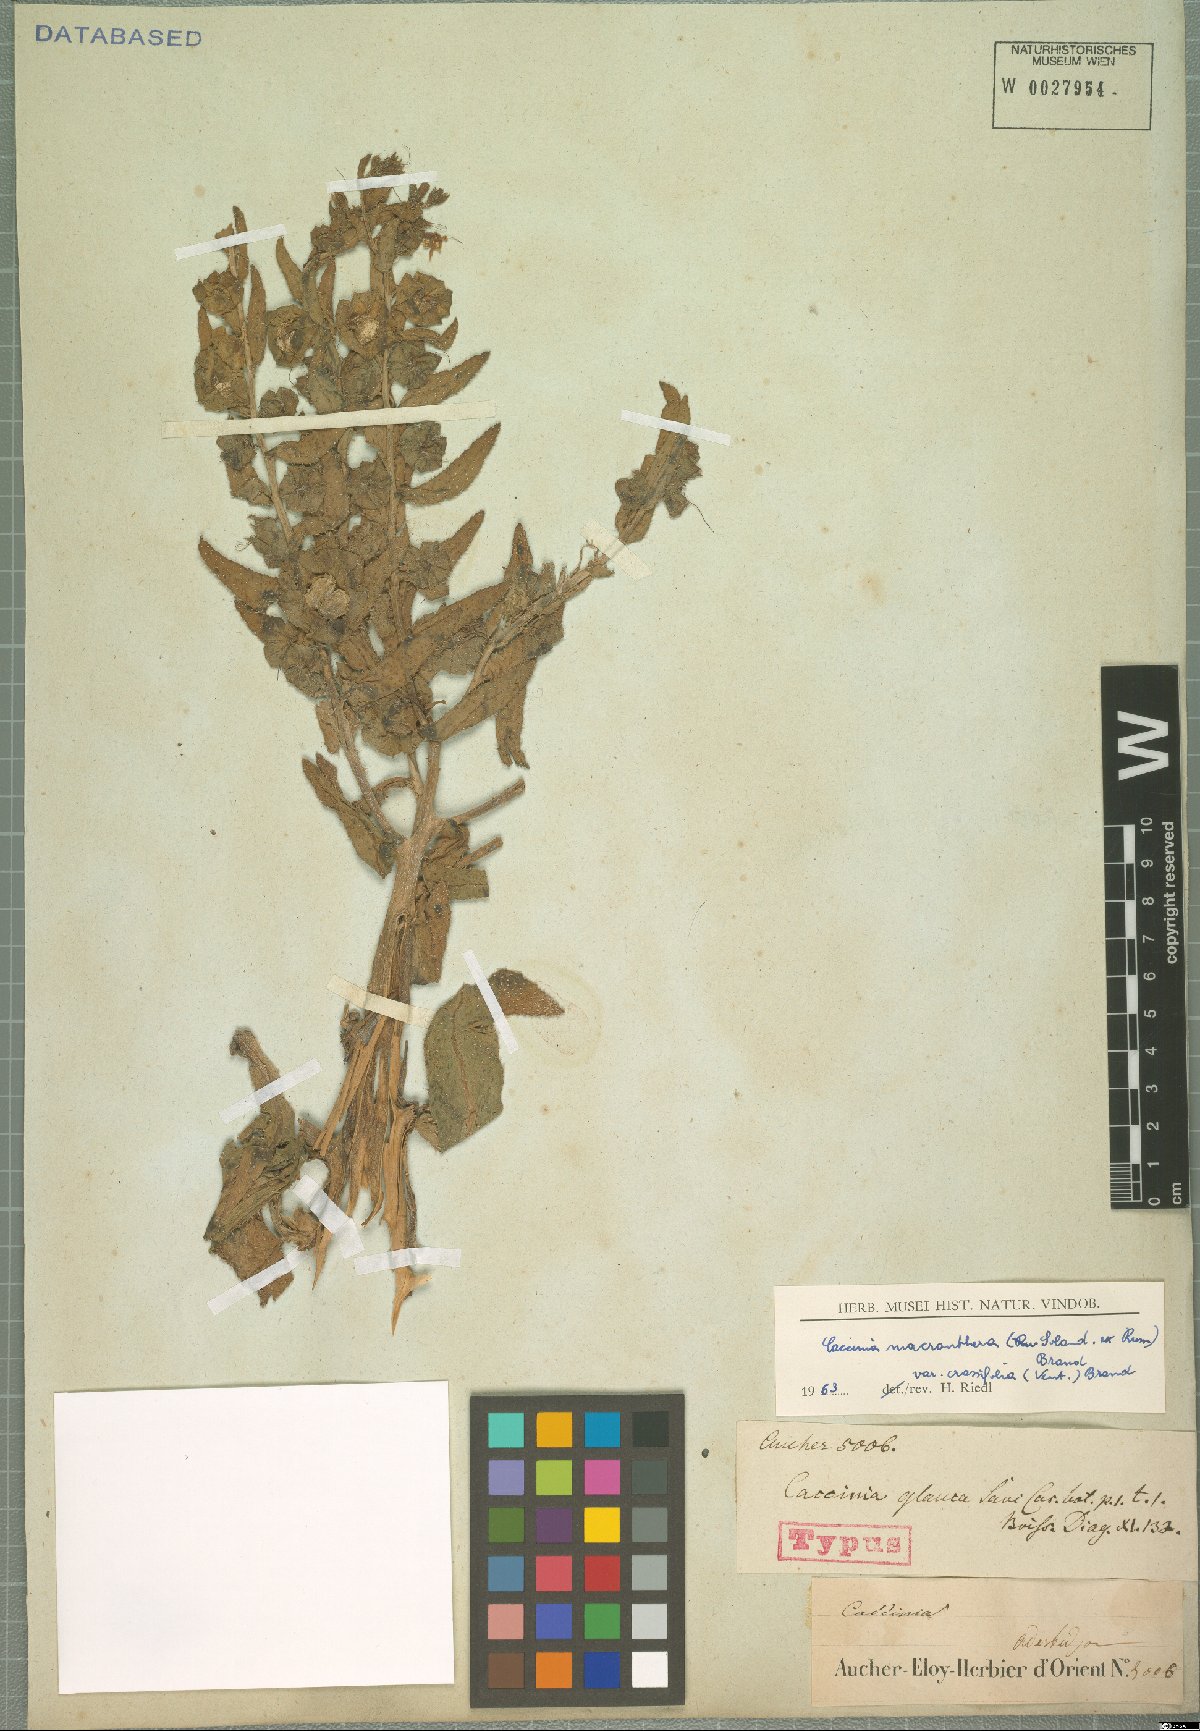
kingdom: Plantae
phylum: Tracheophyta
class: Magnoliopsida
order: Boraginales
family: Boraginaceae
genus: Caccinia
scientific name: Caccinia macranthera
